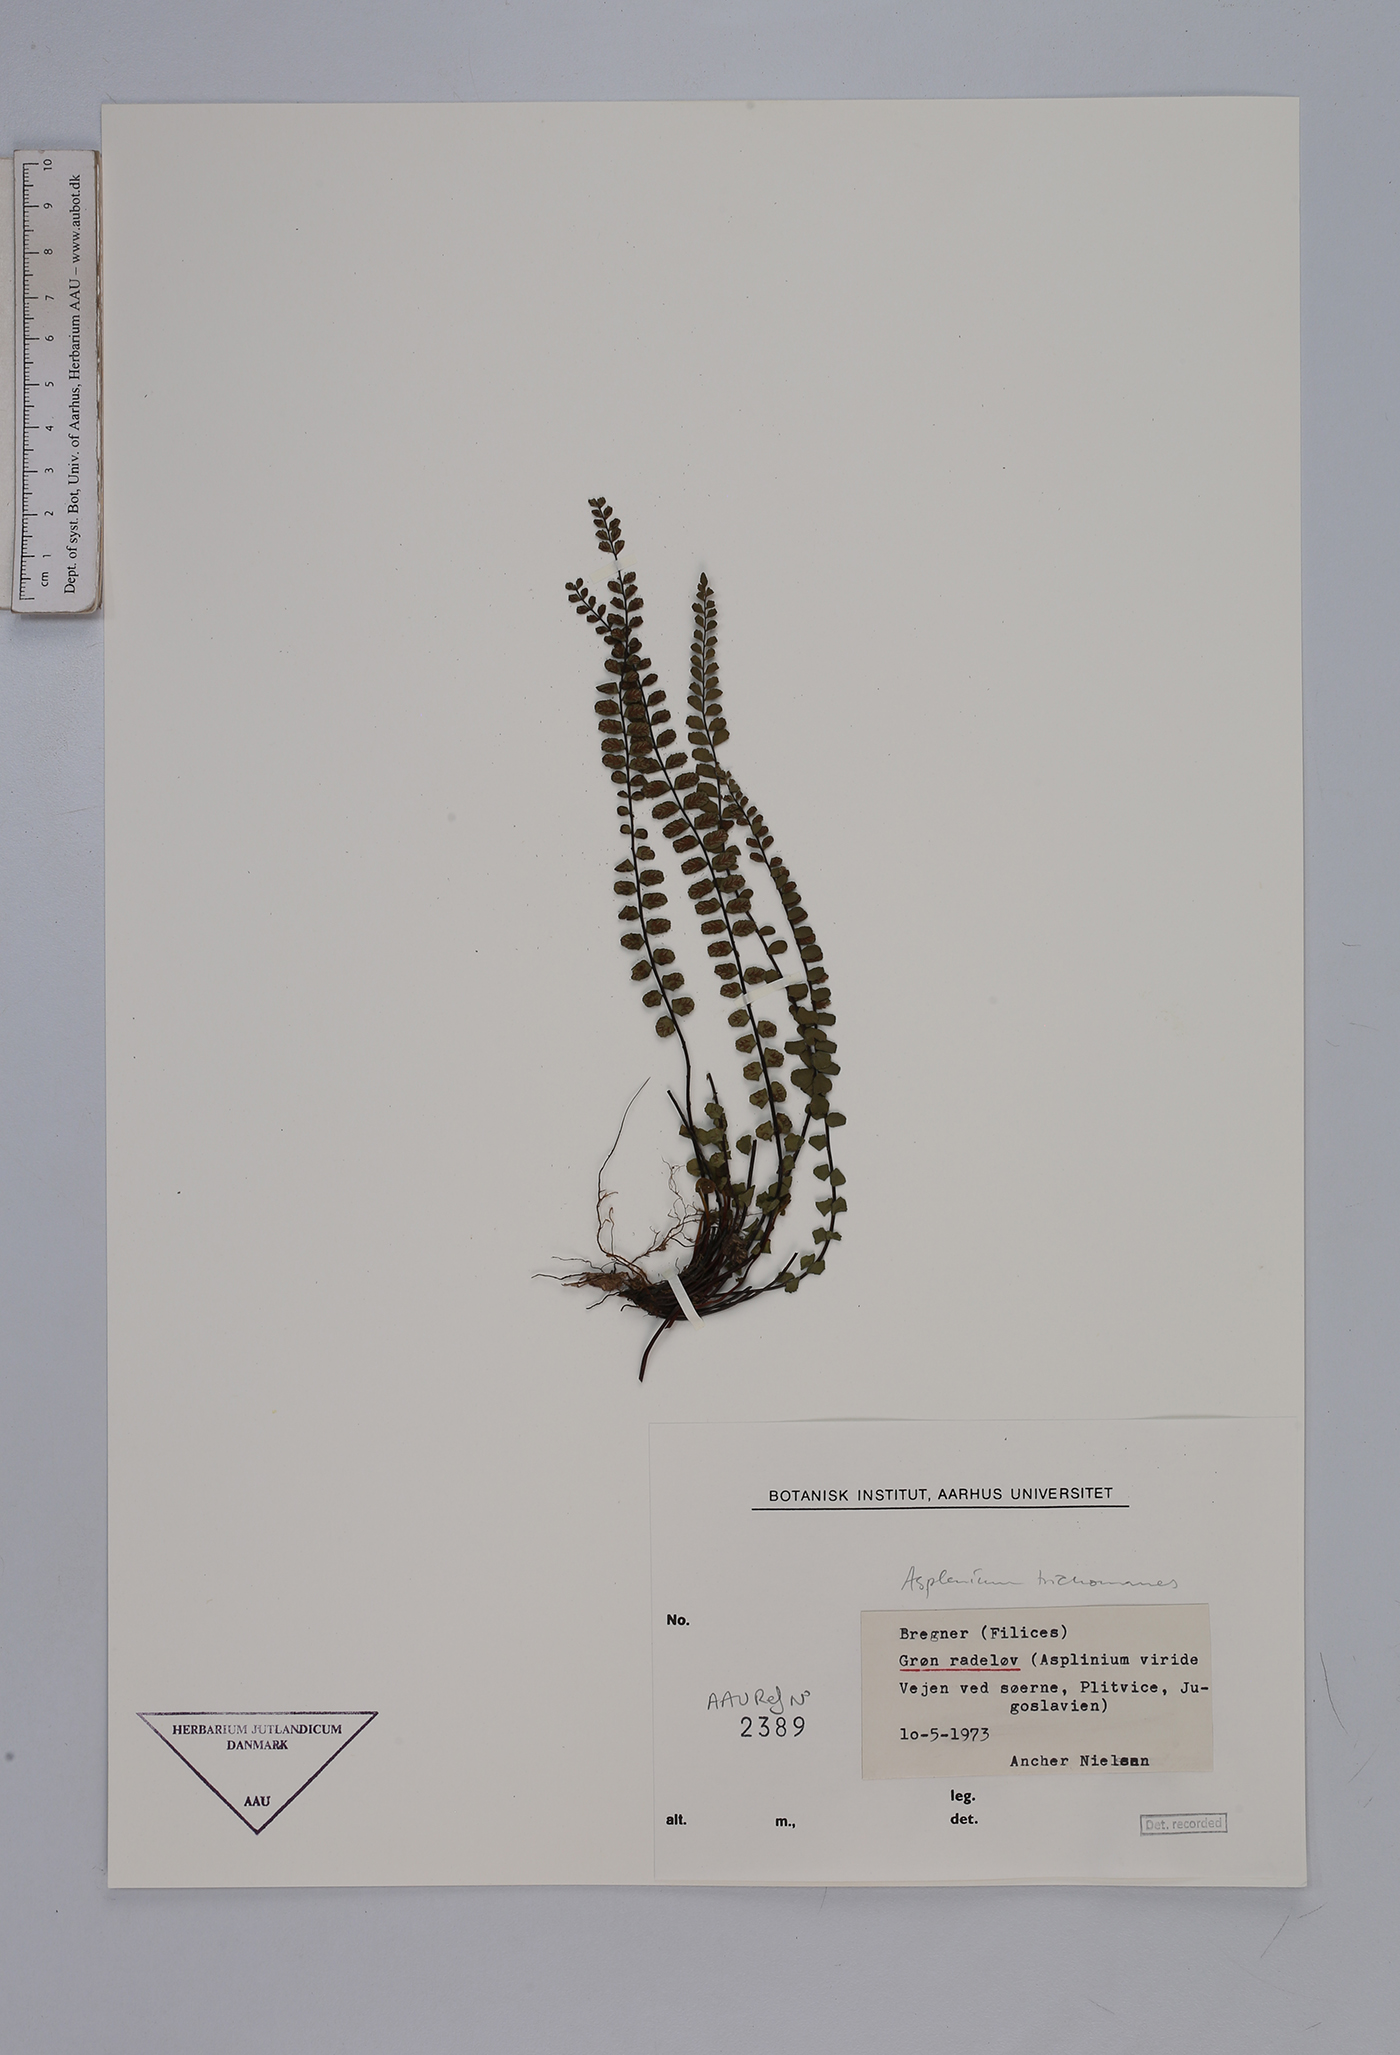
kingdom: Plantae
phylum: Tracheophyta
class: Polypodiopsida
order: Polypodiales
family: Aspleniaceae
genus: Asplenium
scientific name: Asplenium trichomanes
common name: Maidenhair spleenwort
